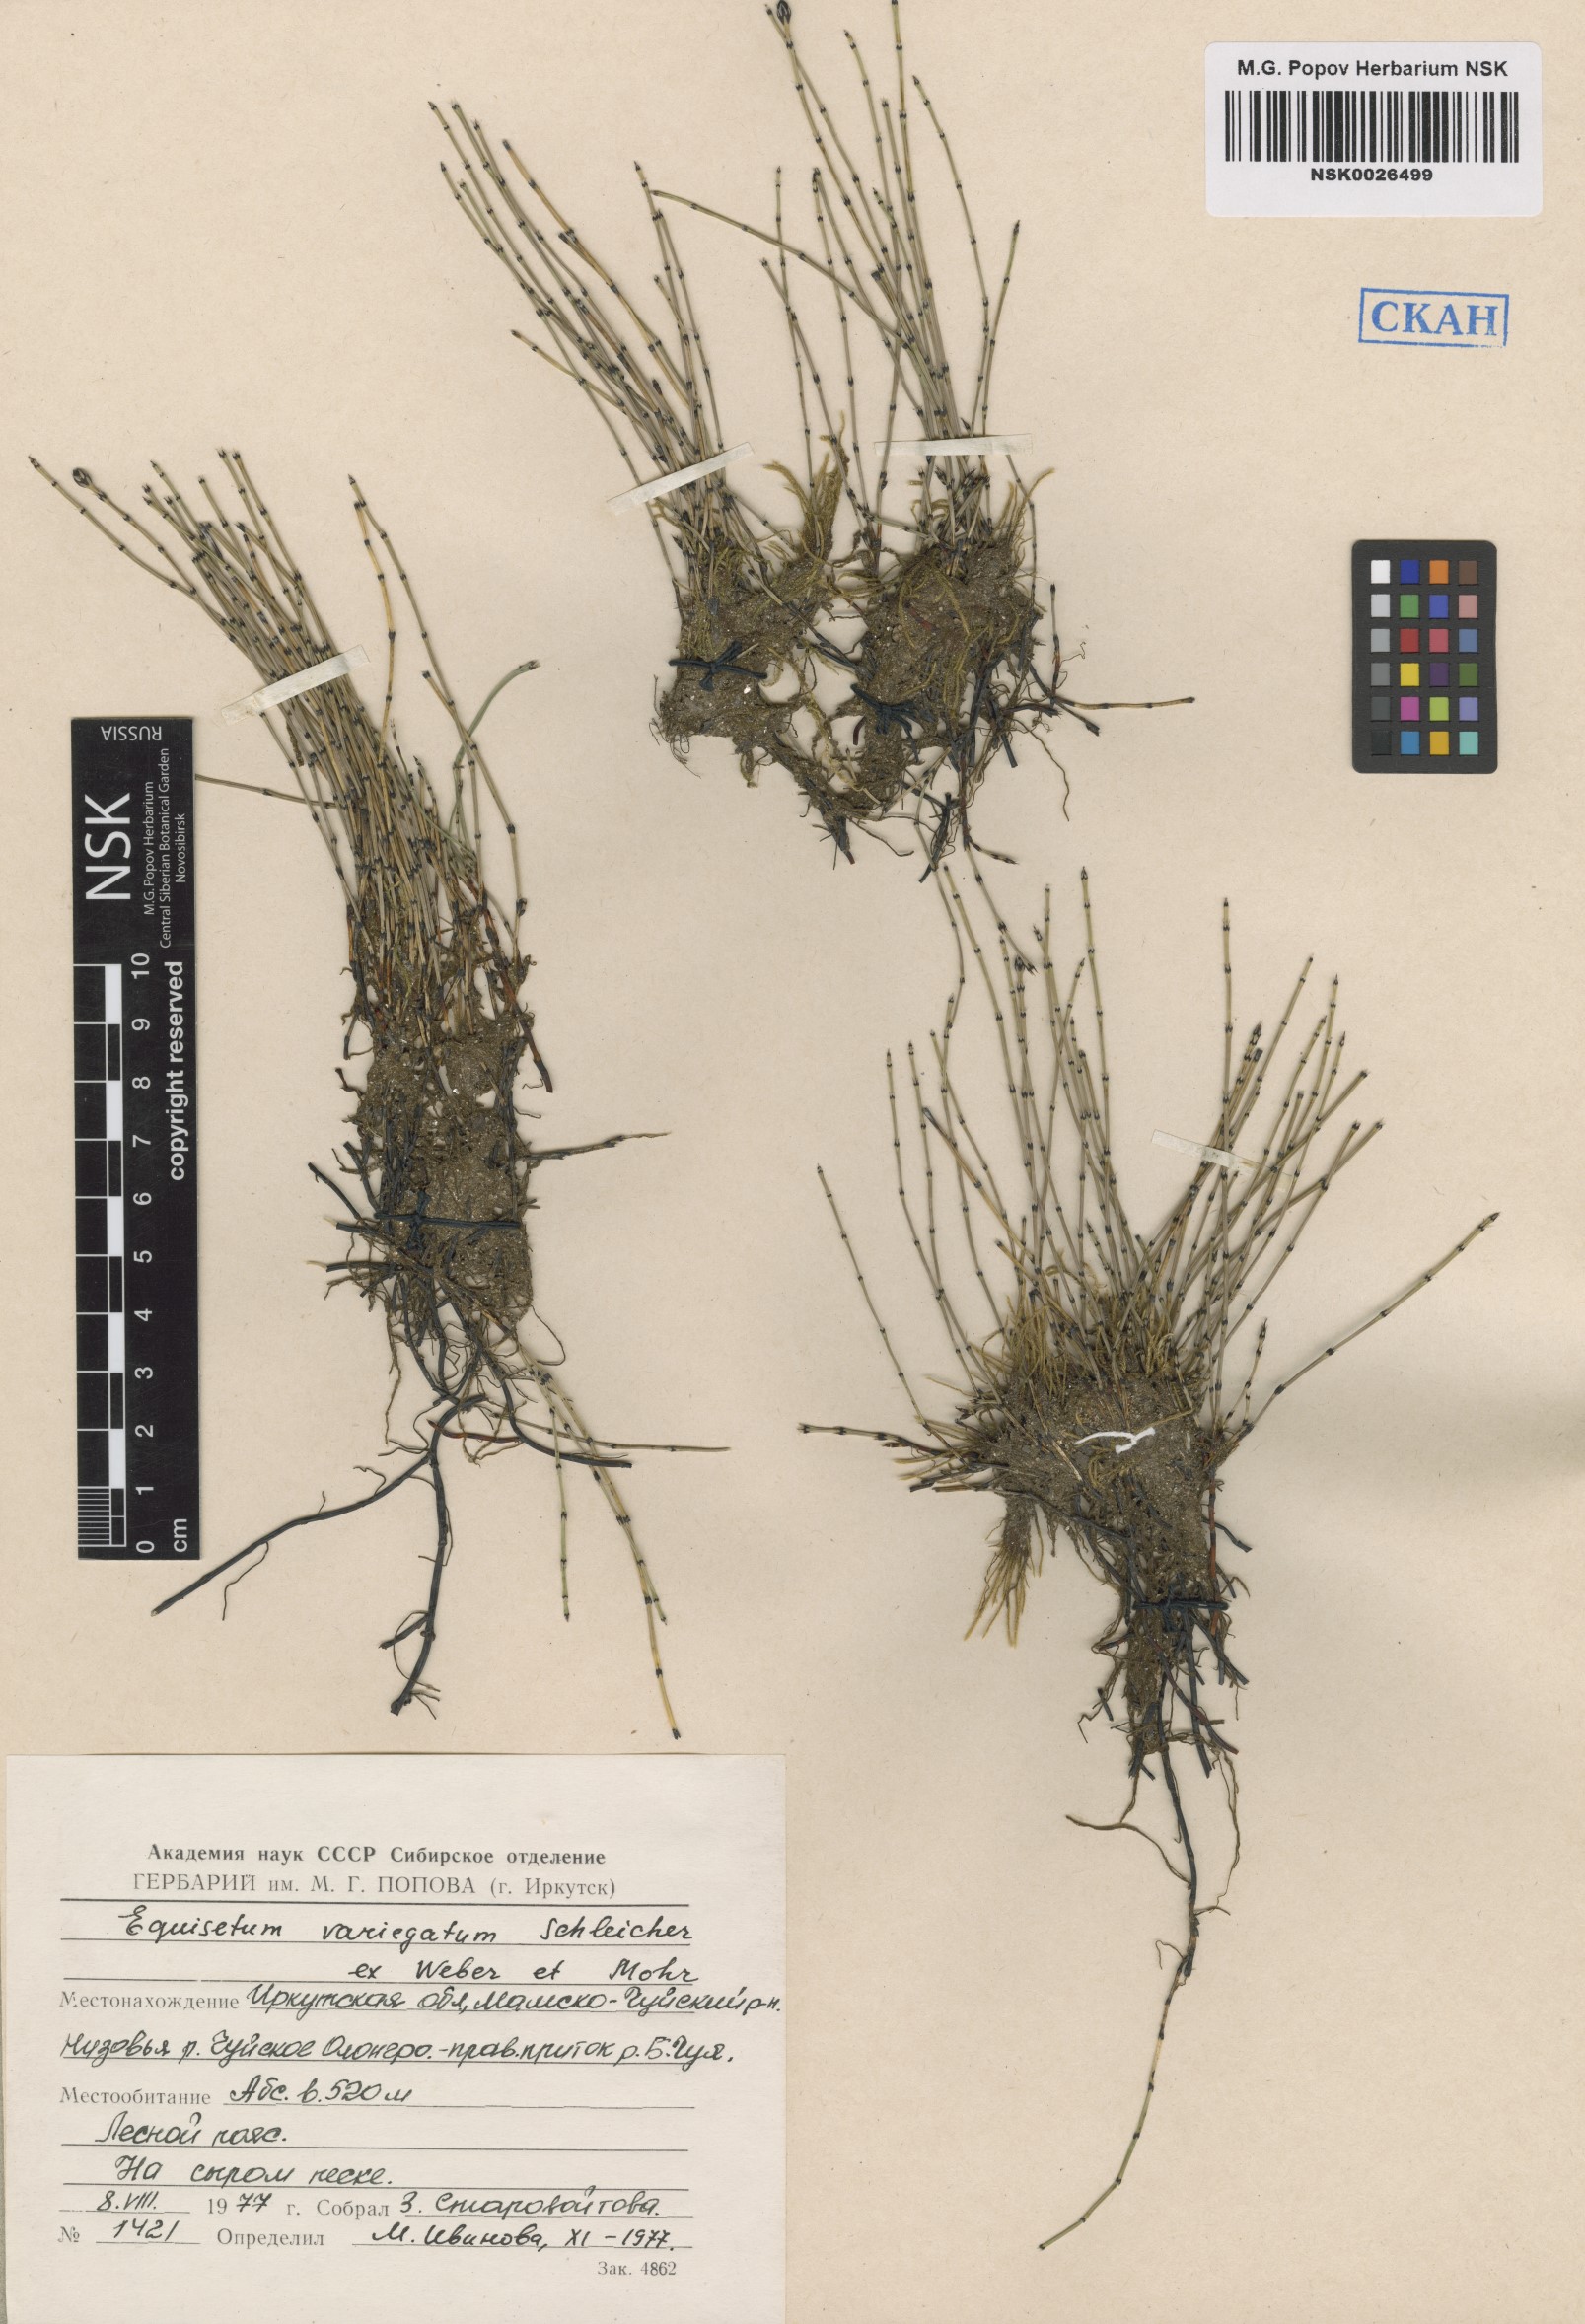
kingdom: Plantae
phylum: Tracheophyta
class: Polypodiopsida
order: Equisetales
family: Equisetaceae
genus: Equisetum
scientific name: Equisetum variegatum
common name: Variegated horsetail
